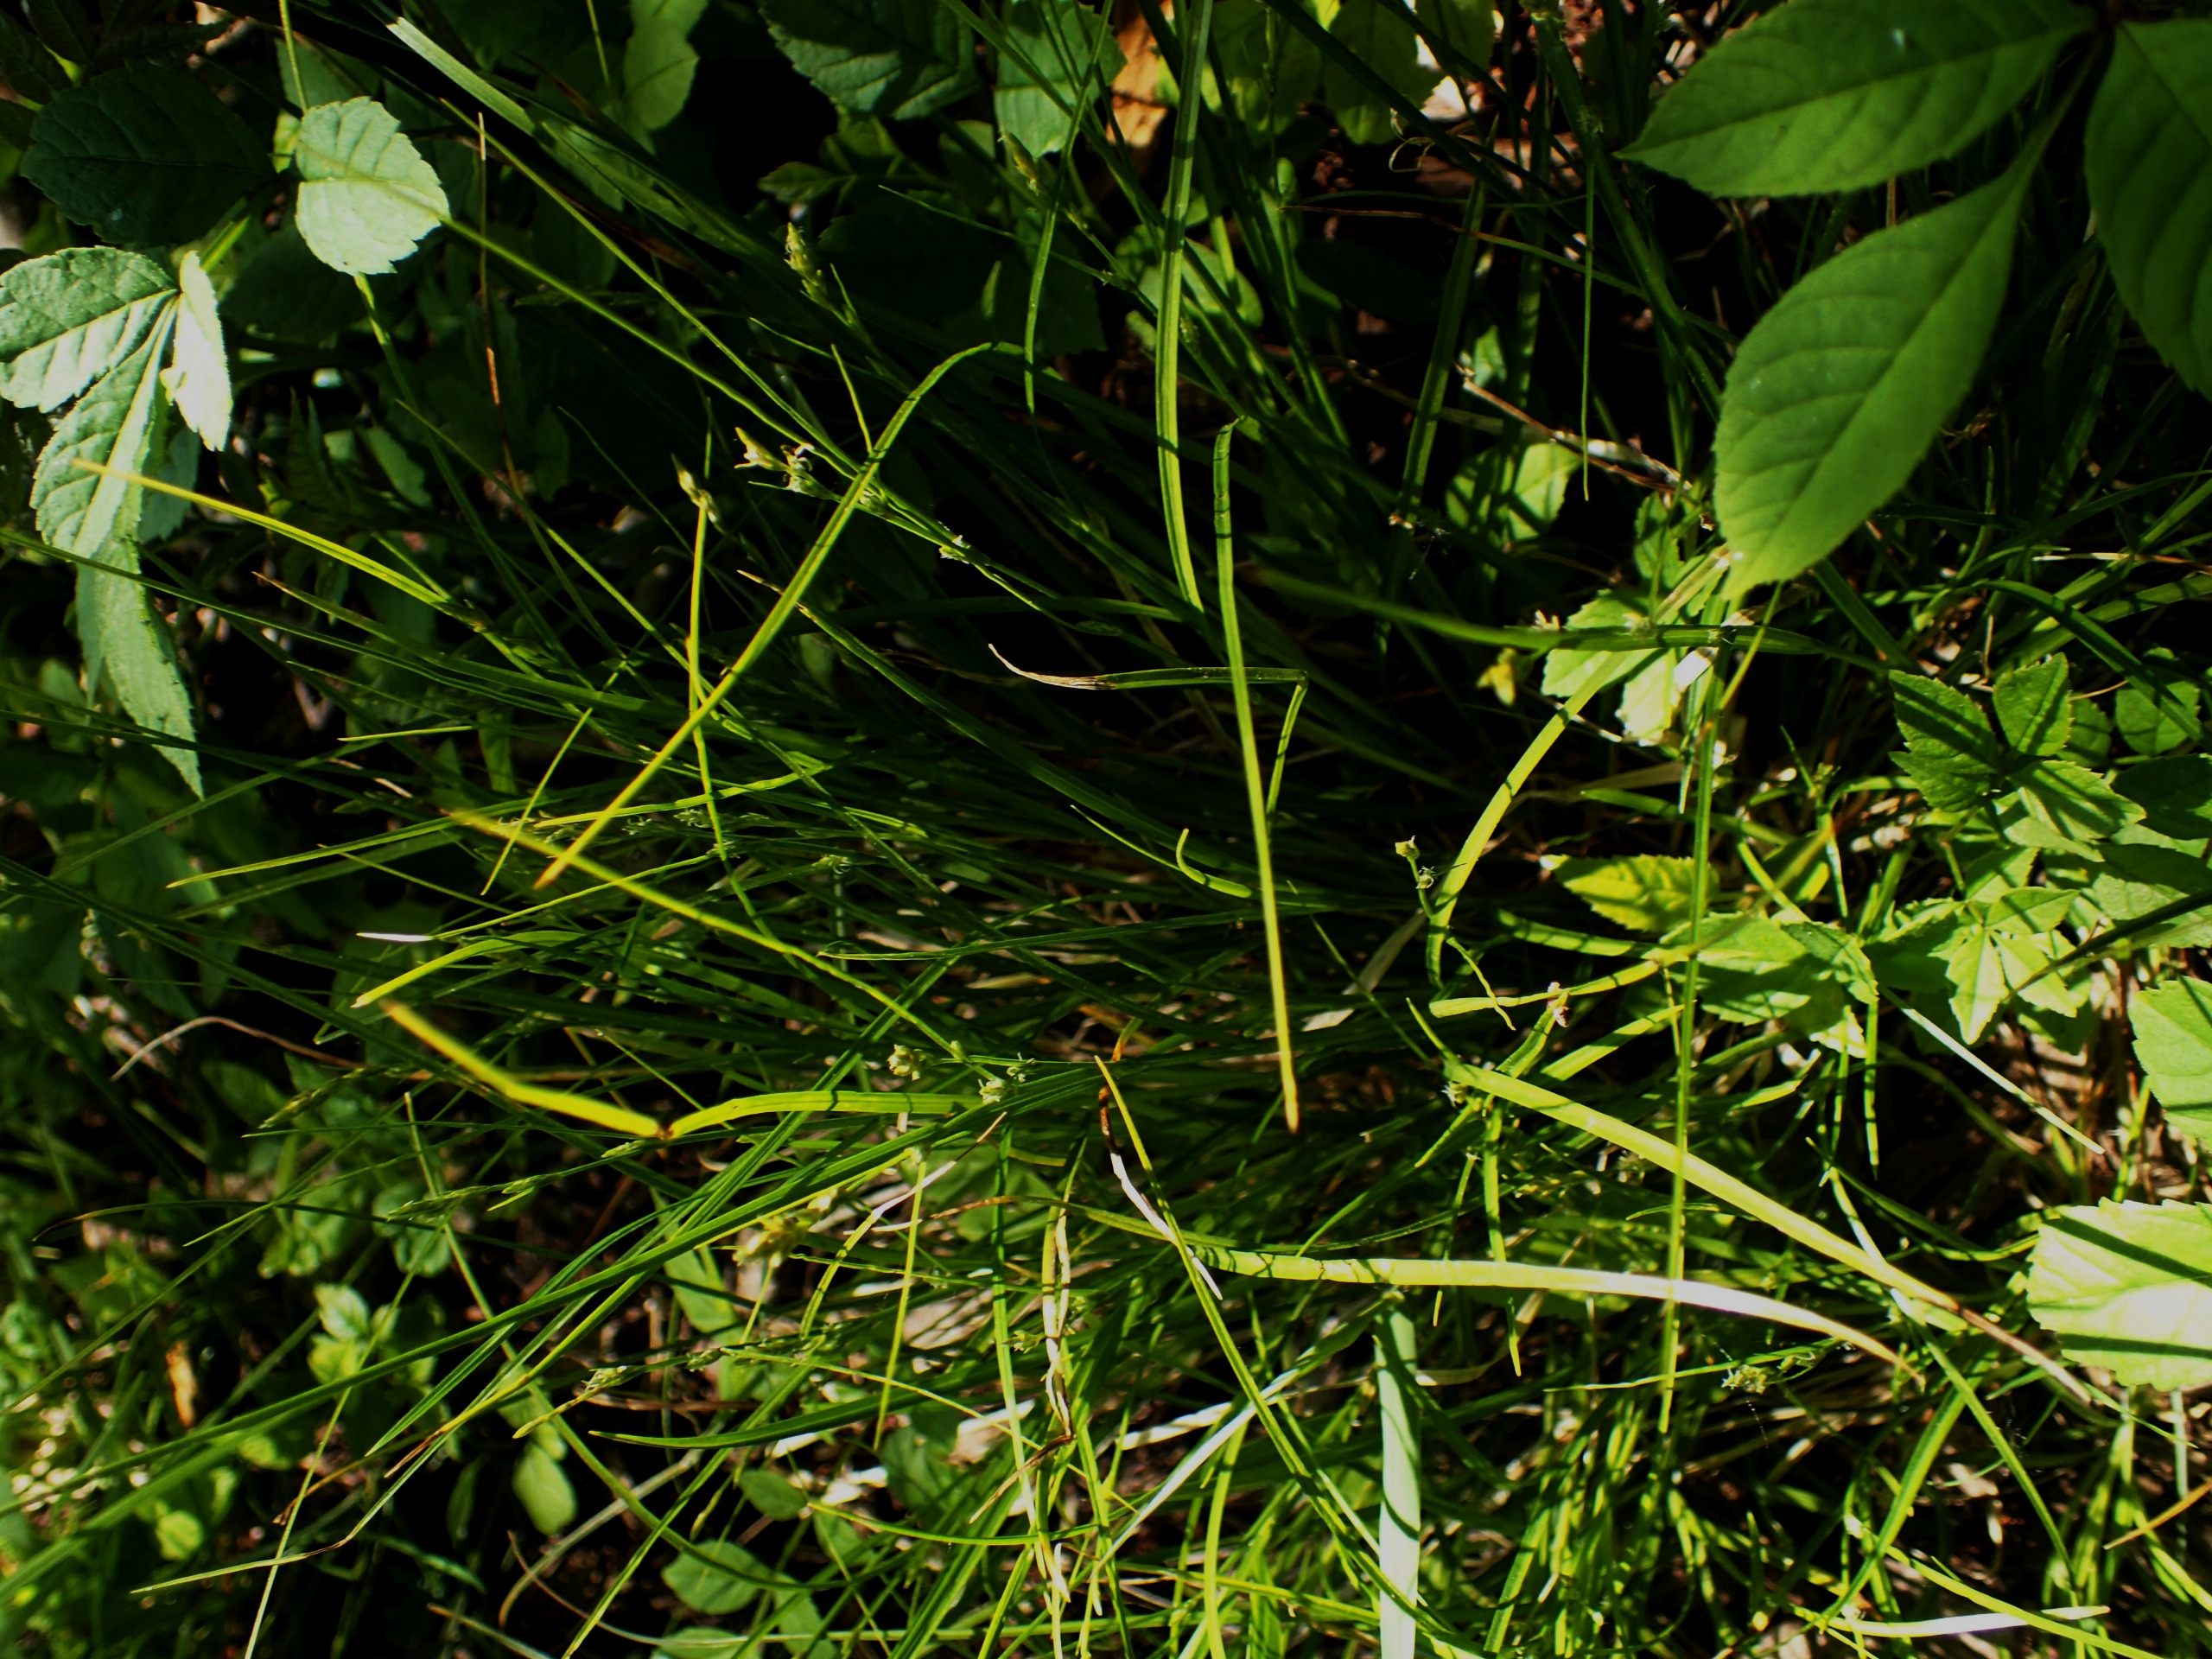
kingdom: Plantae
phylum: Tracheophyta
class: Liliopsida
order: Poales
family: Cyperaceae
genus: Carex
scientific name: Carex remota
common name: Akselblomstret star
